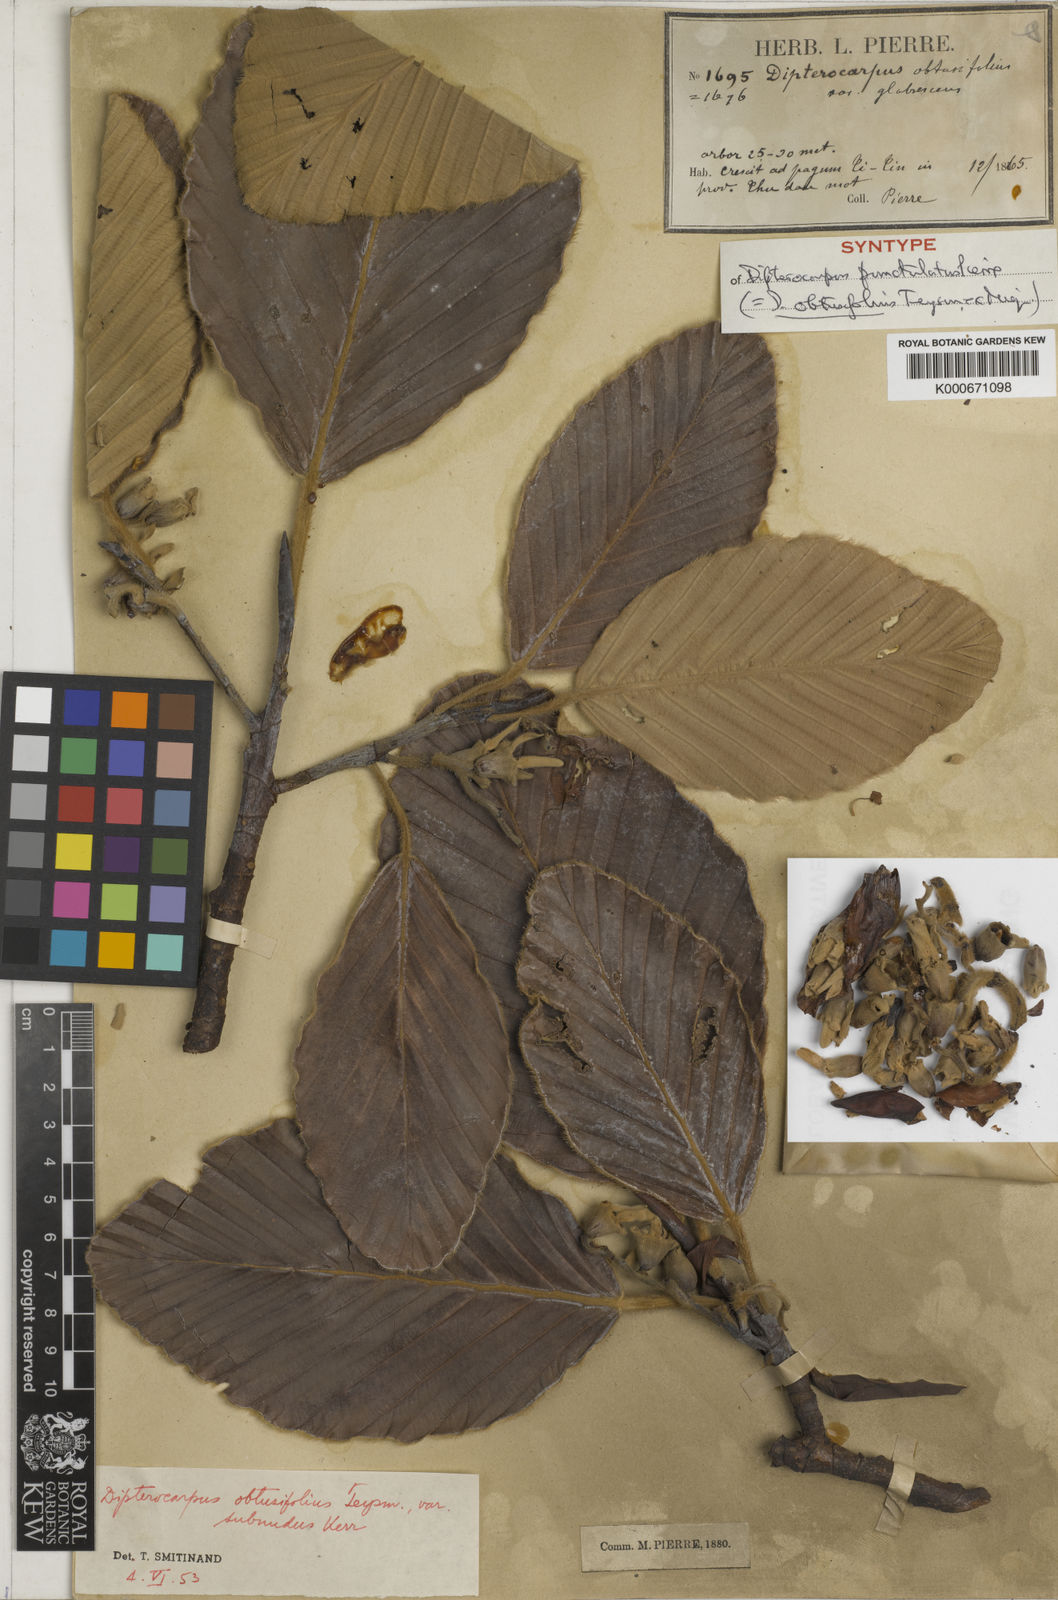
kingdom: Plantae
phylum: Tracheophyta
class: Magnoliopsida
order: Malvales
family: Dipterocarpaceae
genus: Dipterocarpus
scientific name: Dipterocarpus obtusifolius
